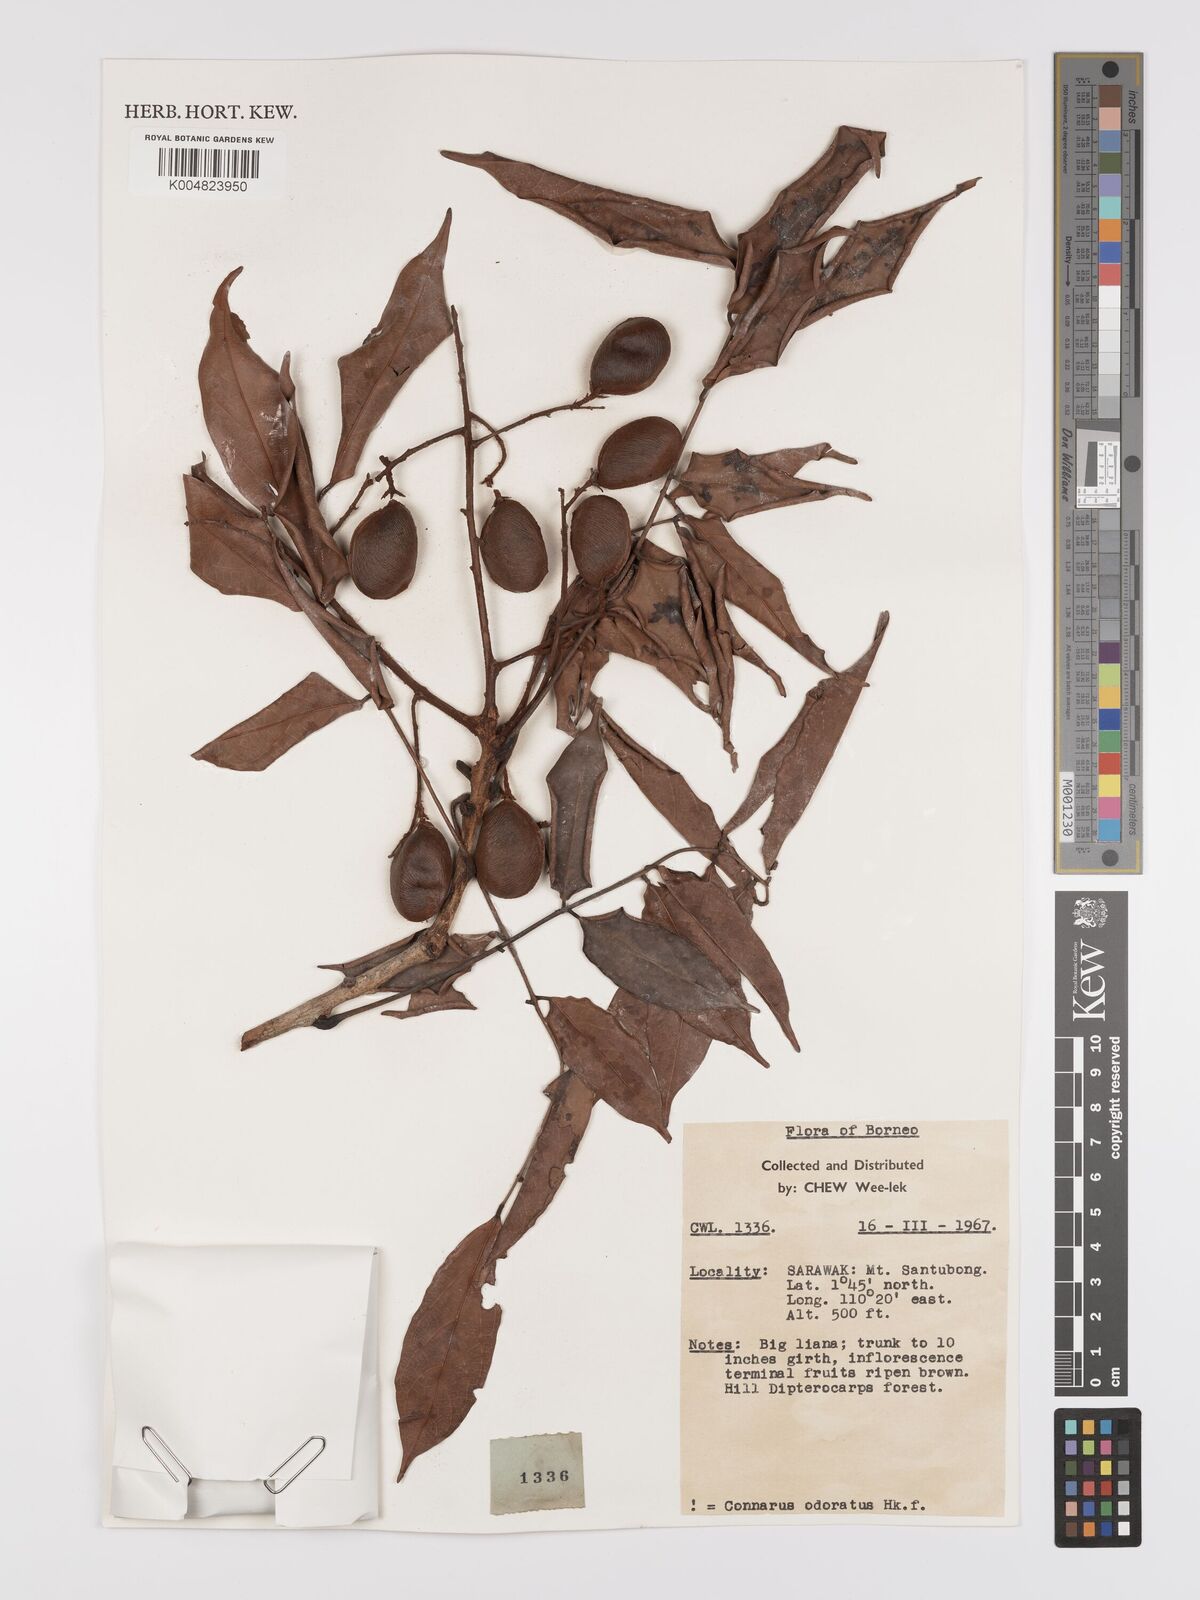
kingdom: Plantae
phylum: Tracheophyta
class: Magnoliopsida
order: Oxalidales
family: Connaraceae
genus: Connarus
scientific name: Connarus odoratus
